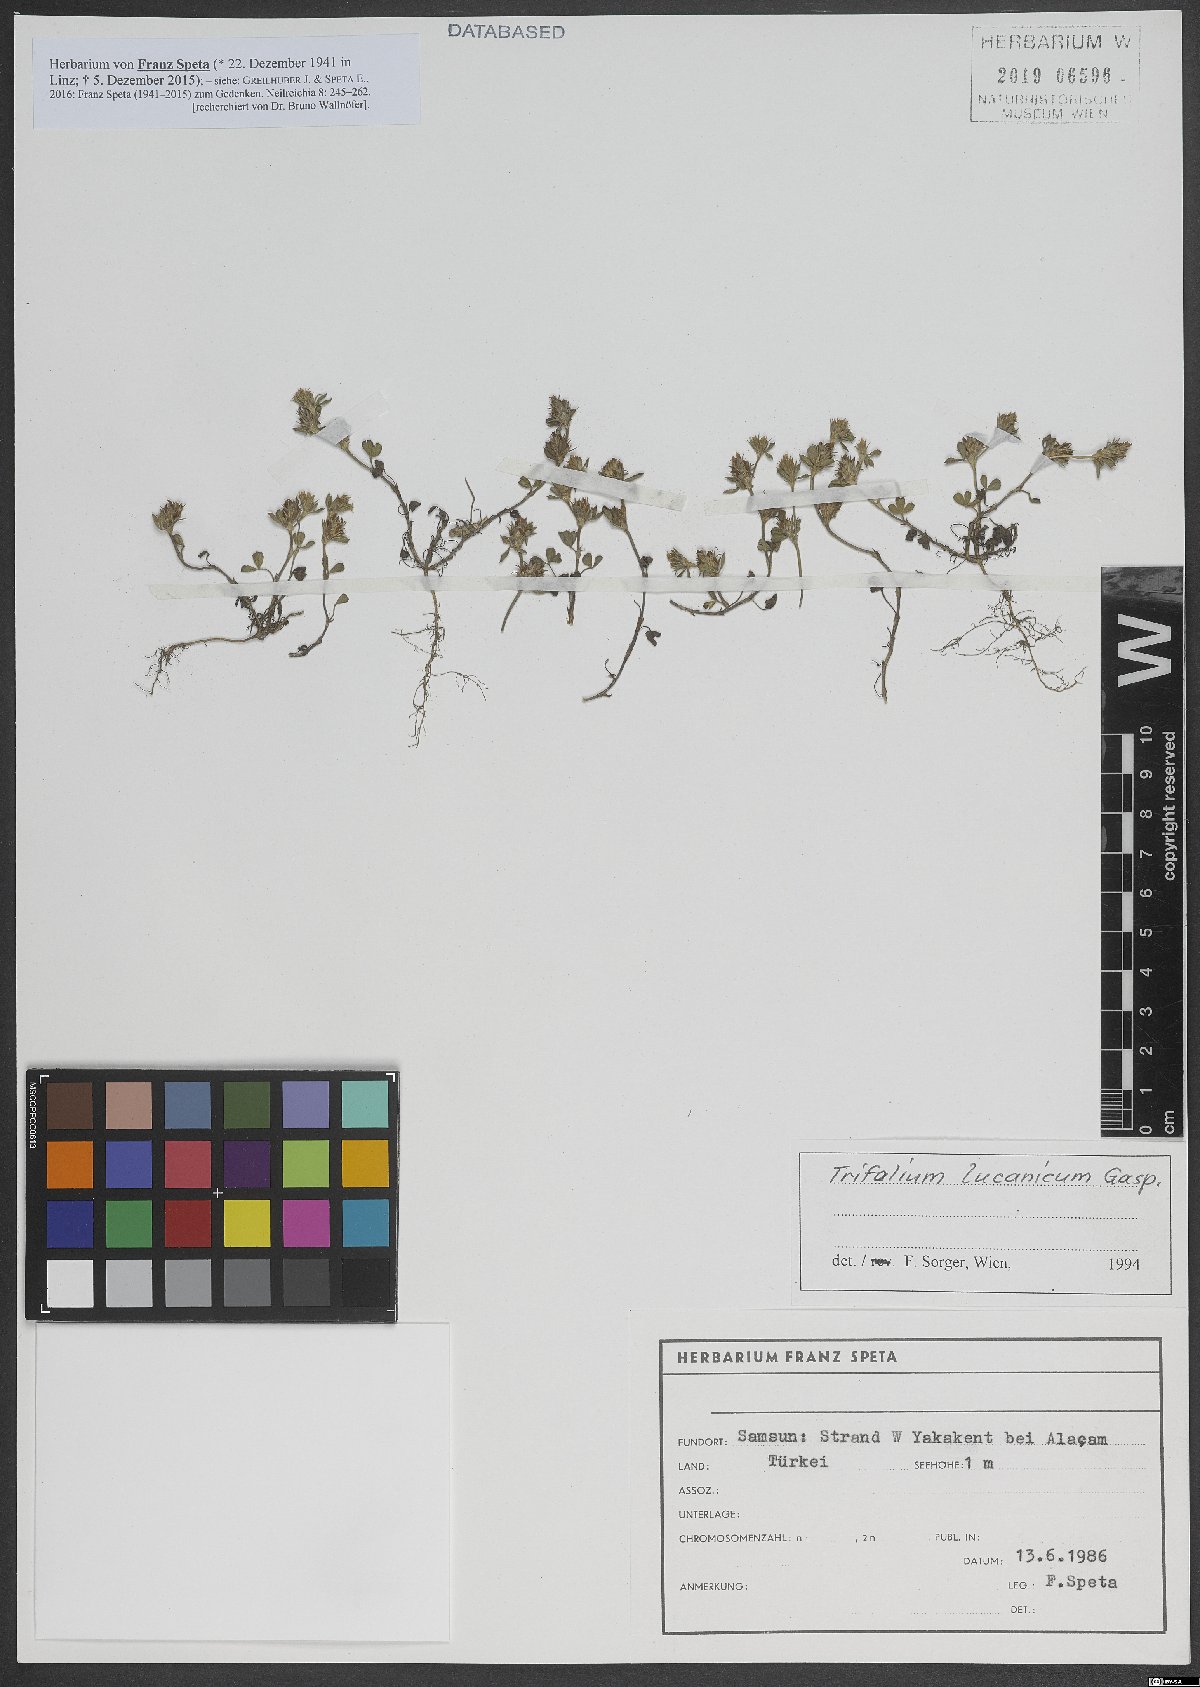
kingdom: Plantae
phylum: Tracheophyta
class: Magnoliopsida
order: Fabales
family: Fabaceae
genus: Trifolium
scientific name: Trifolium lucanicum
